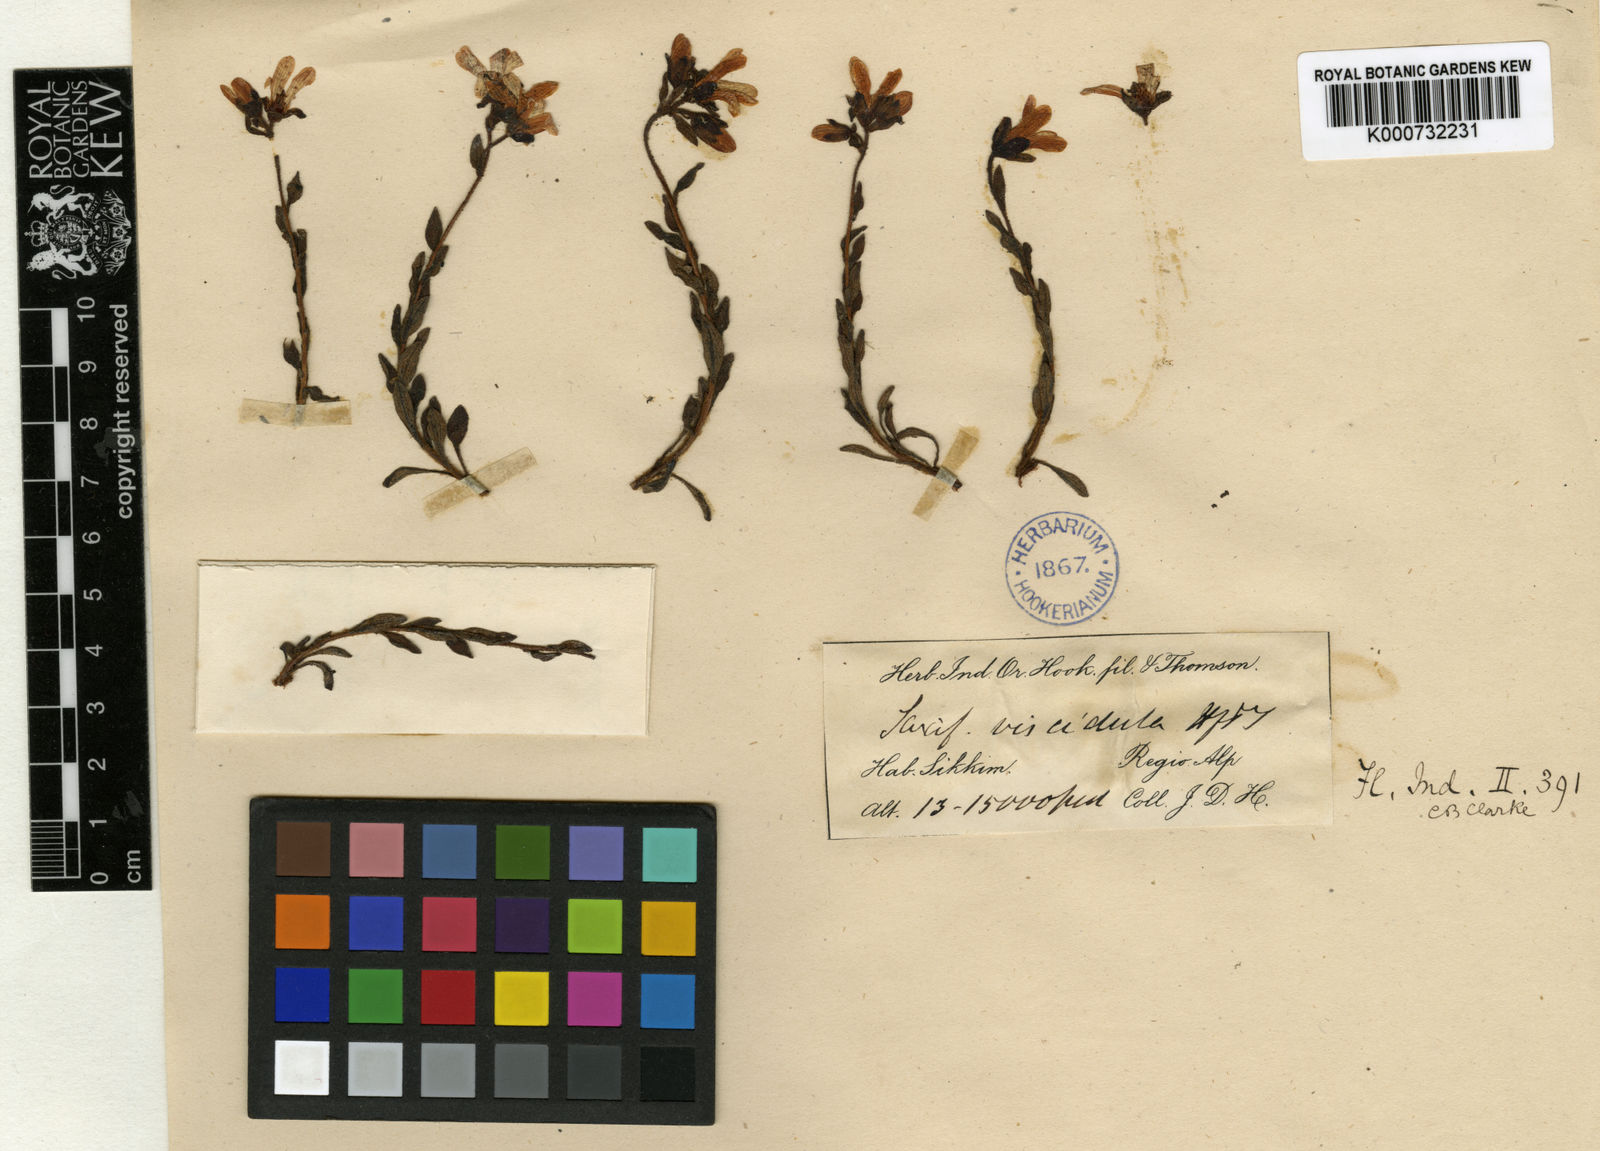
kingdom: Plantae
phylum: Tracheophyta
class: Magnoliopsida
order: Saxifragales
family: Saxifragaceae
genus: Saxifraga
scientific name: Saxifraga viscidula
